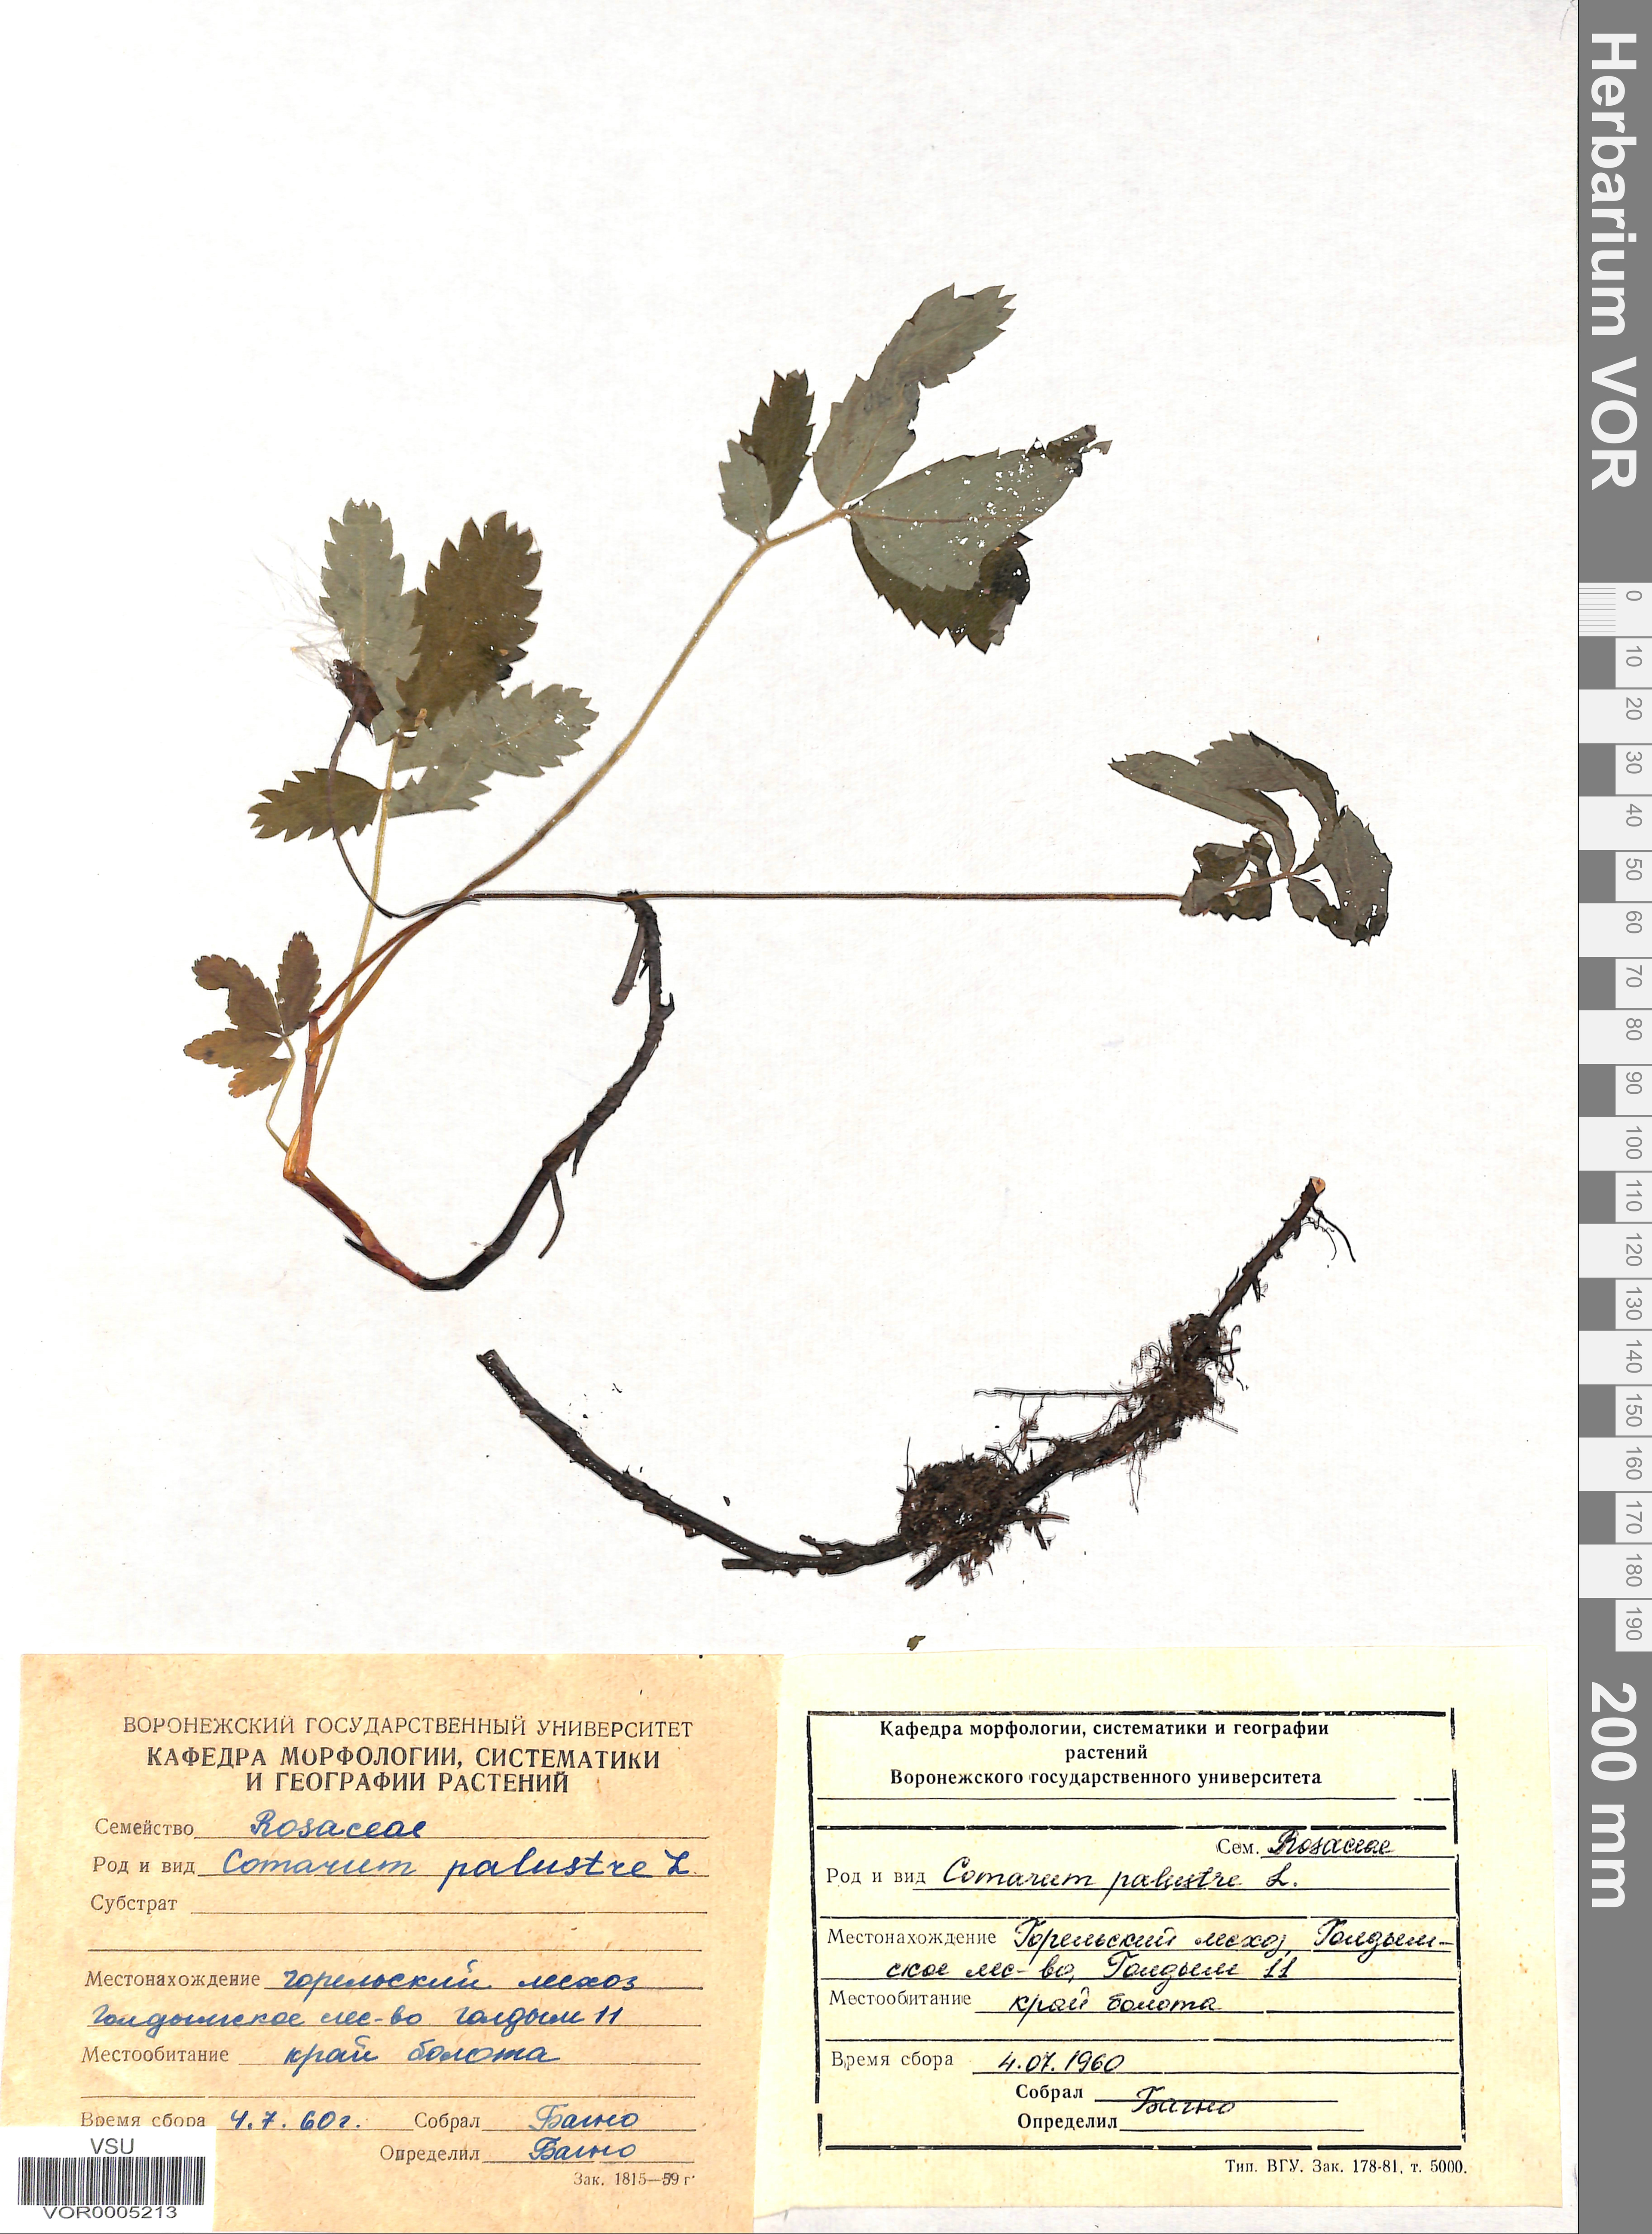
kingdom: Plantae
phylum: Tracheophyta
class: Magnoliopsida
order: Rosales
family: Rosaceae
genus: Comarum
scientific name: Comarum palustre
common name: Marsh cinquefoil
